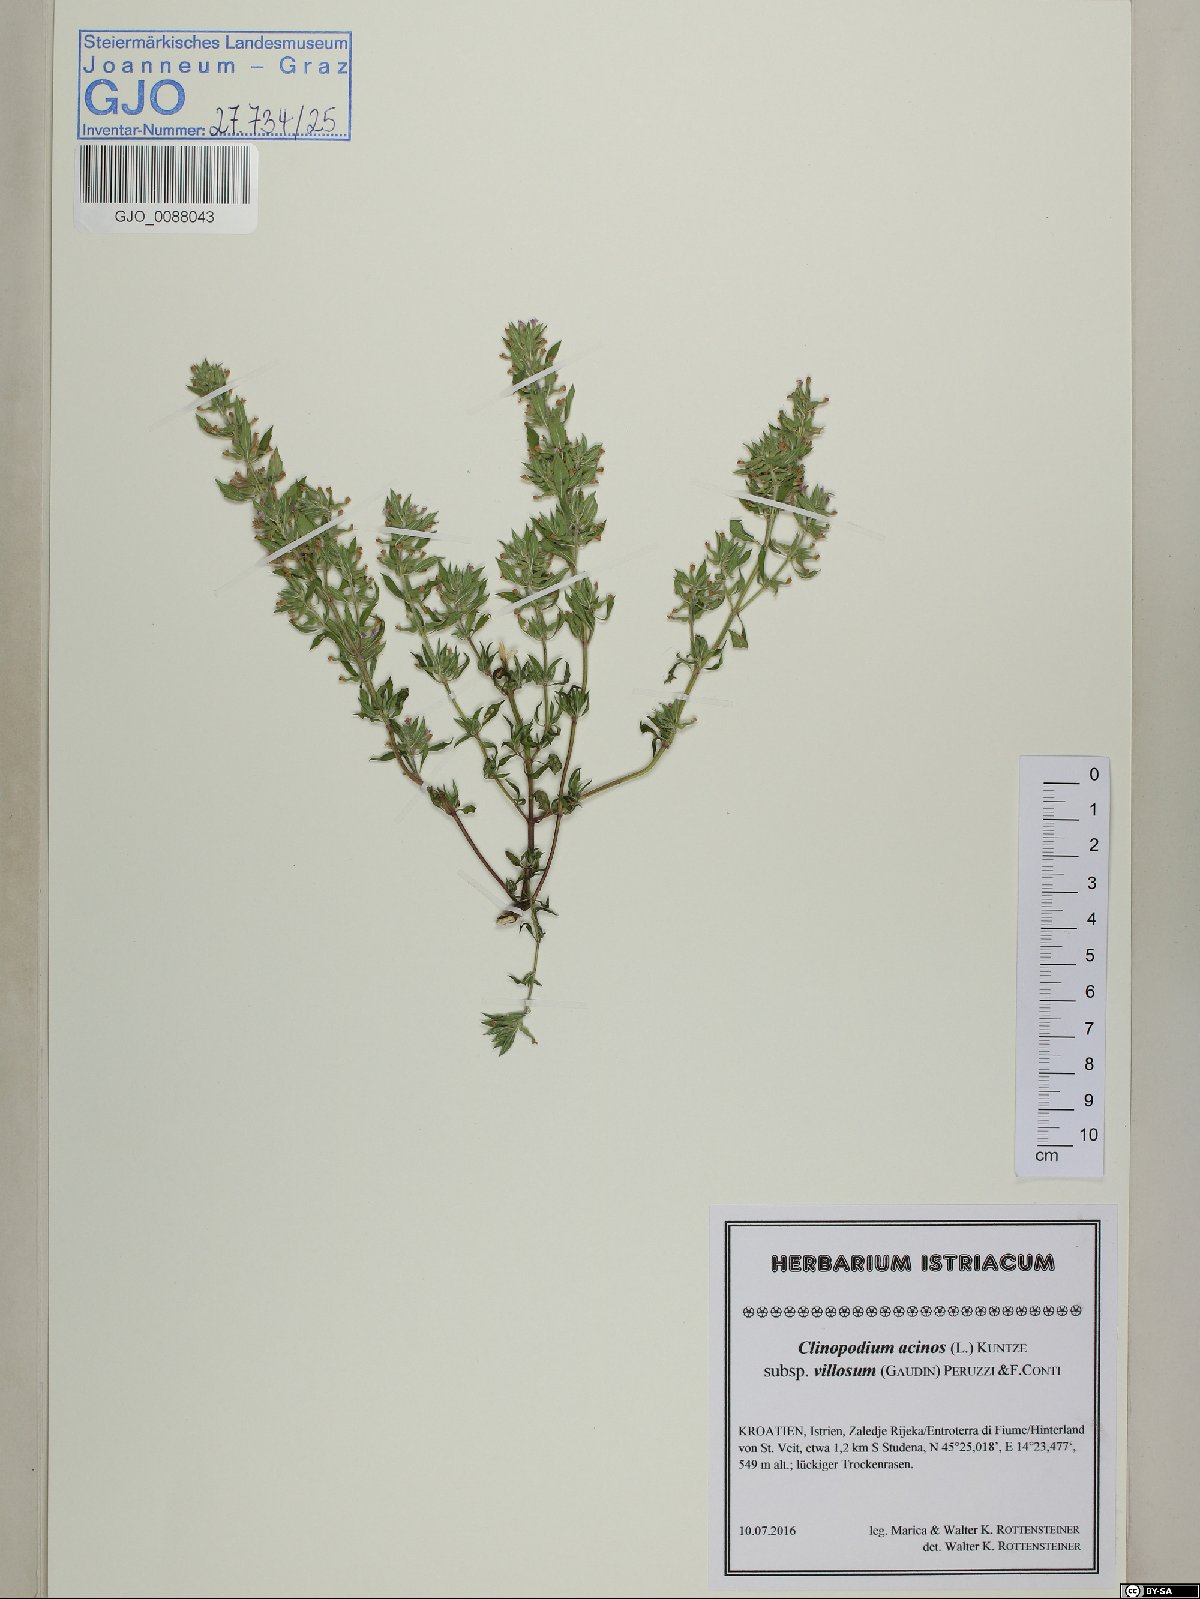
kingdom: Plantae
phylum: Tracheophyta
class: Magnoliopsida
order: Lamiales
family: Lamiaceae
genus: Clinopodium
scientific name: Clinopodium acinos
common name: Basil thyme
